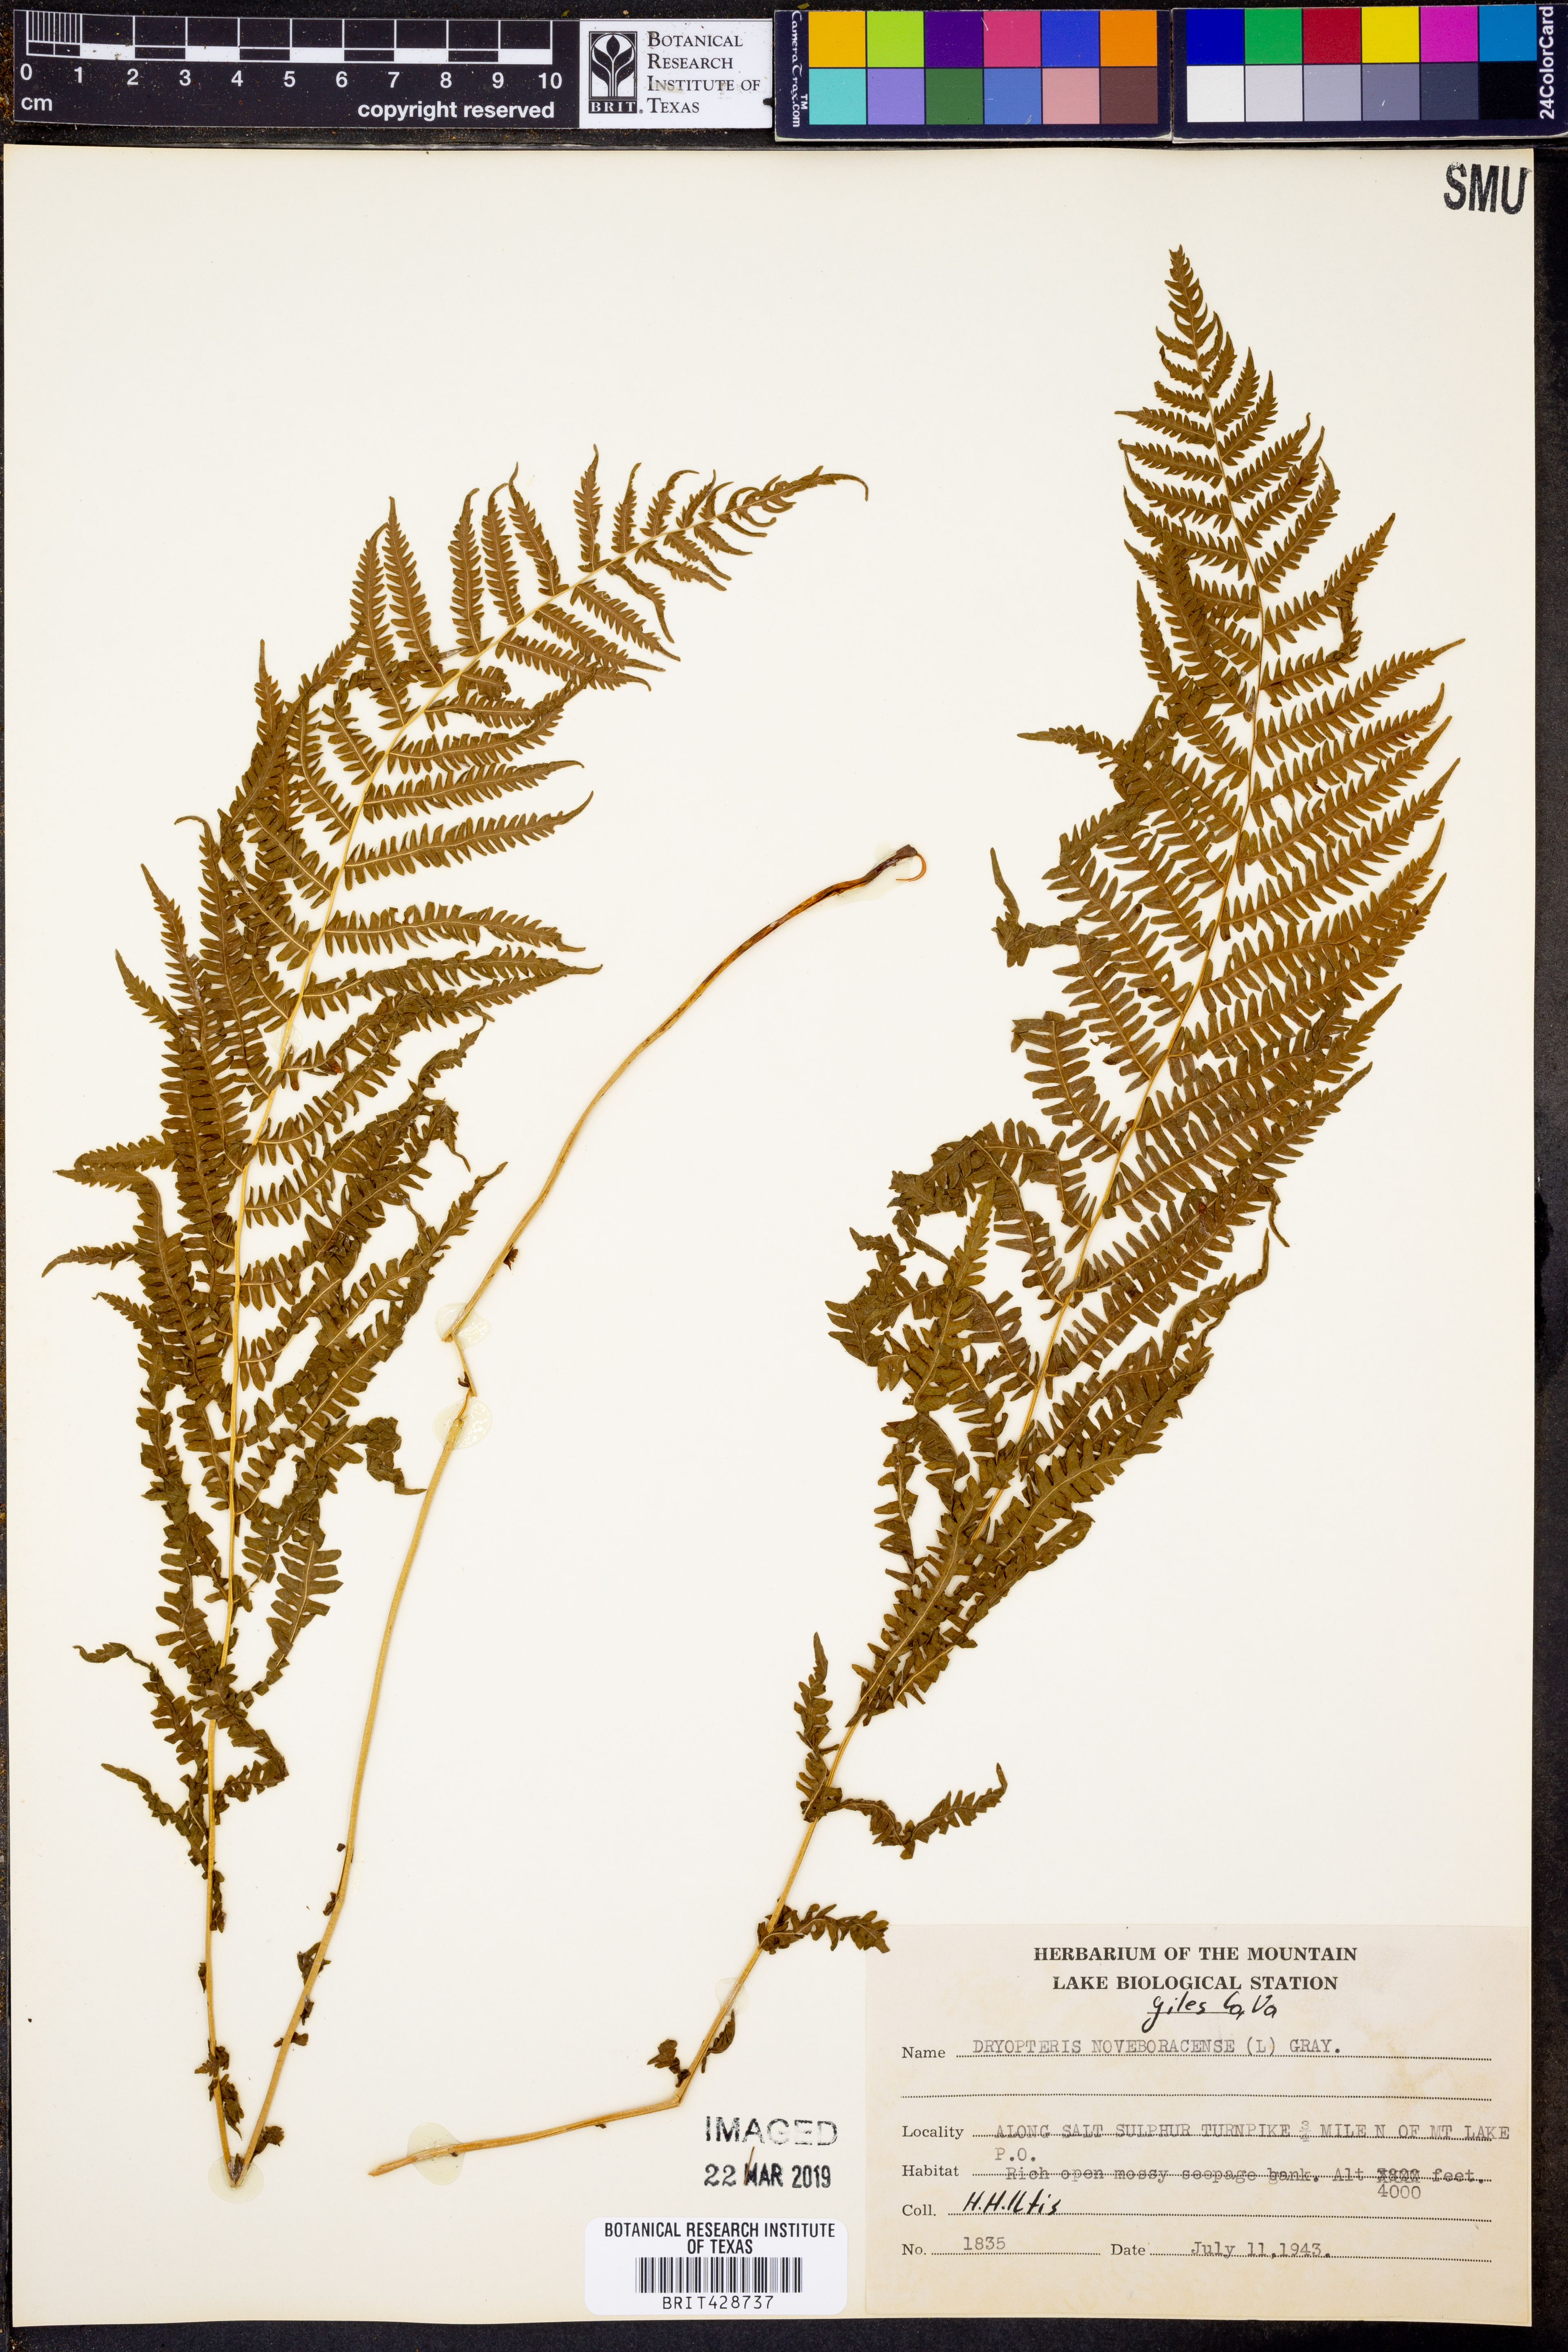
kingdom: Plantae
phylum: Tracheophyta
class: Polypodiopsida
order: Polypodiales
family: Thelypteridaceae
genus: Amauropelta
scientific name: Amauropelta noveboracensis
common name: New york fern
